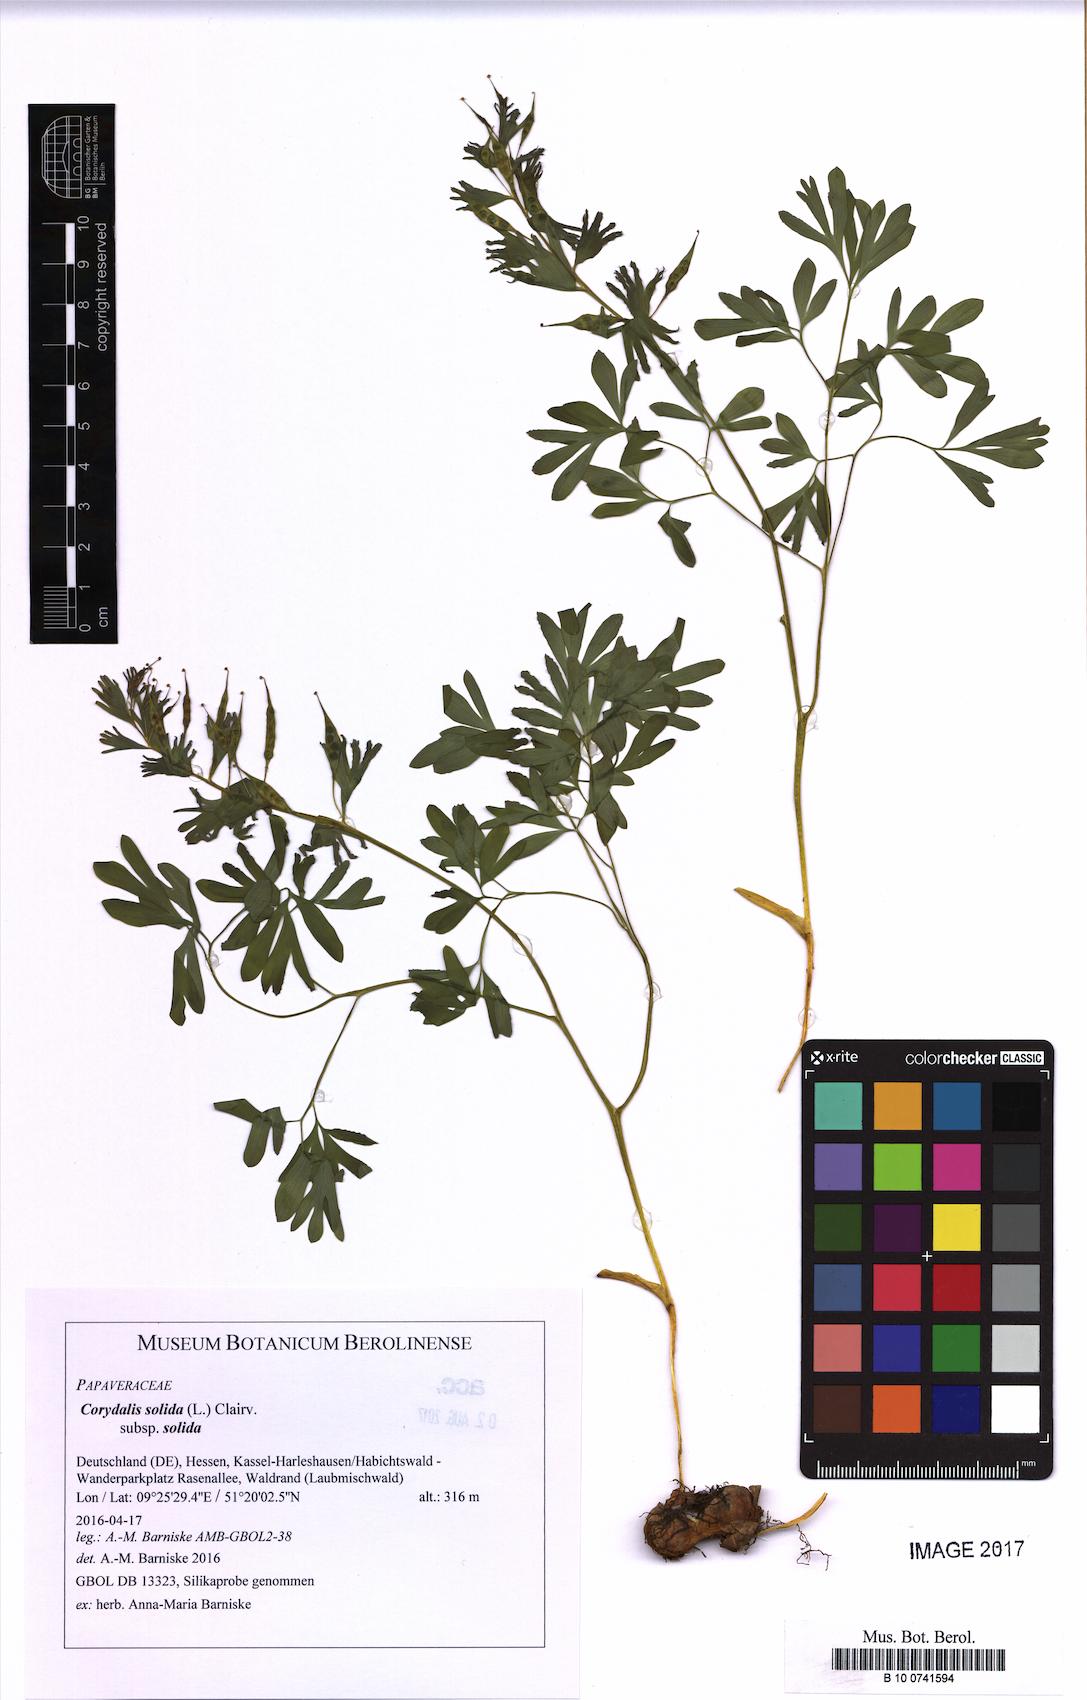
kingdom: Plantae
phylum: Tracheophyta
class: Magnoliopsida
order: Ranunculales
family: Papaveraceae
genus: Corydalis
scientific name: Corydalis solida
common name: Bird-in-a-bush
